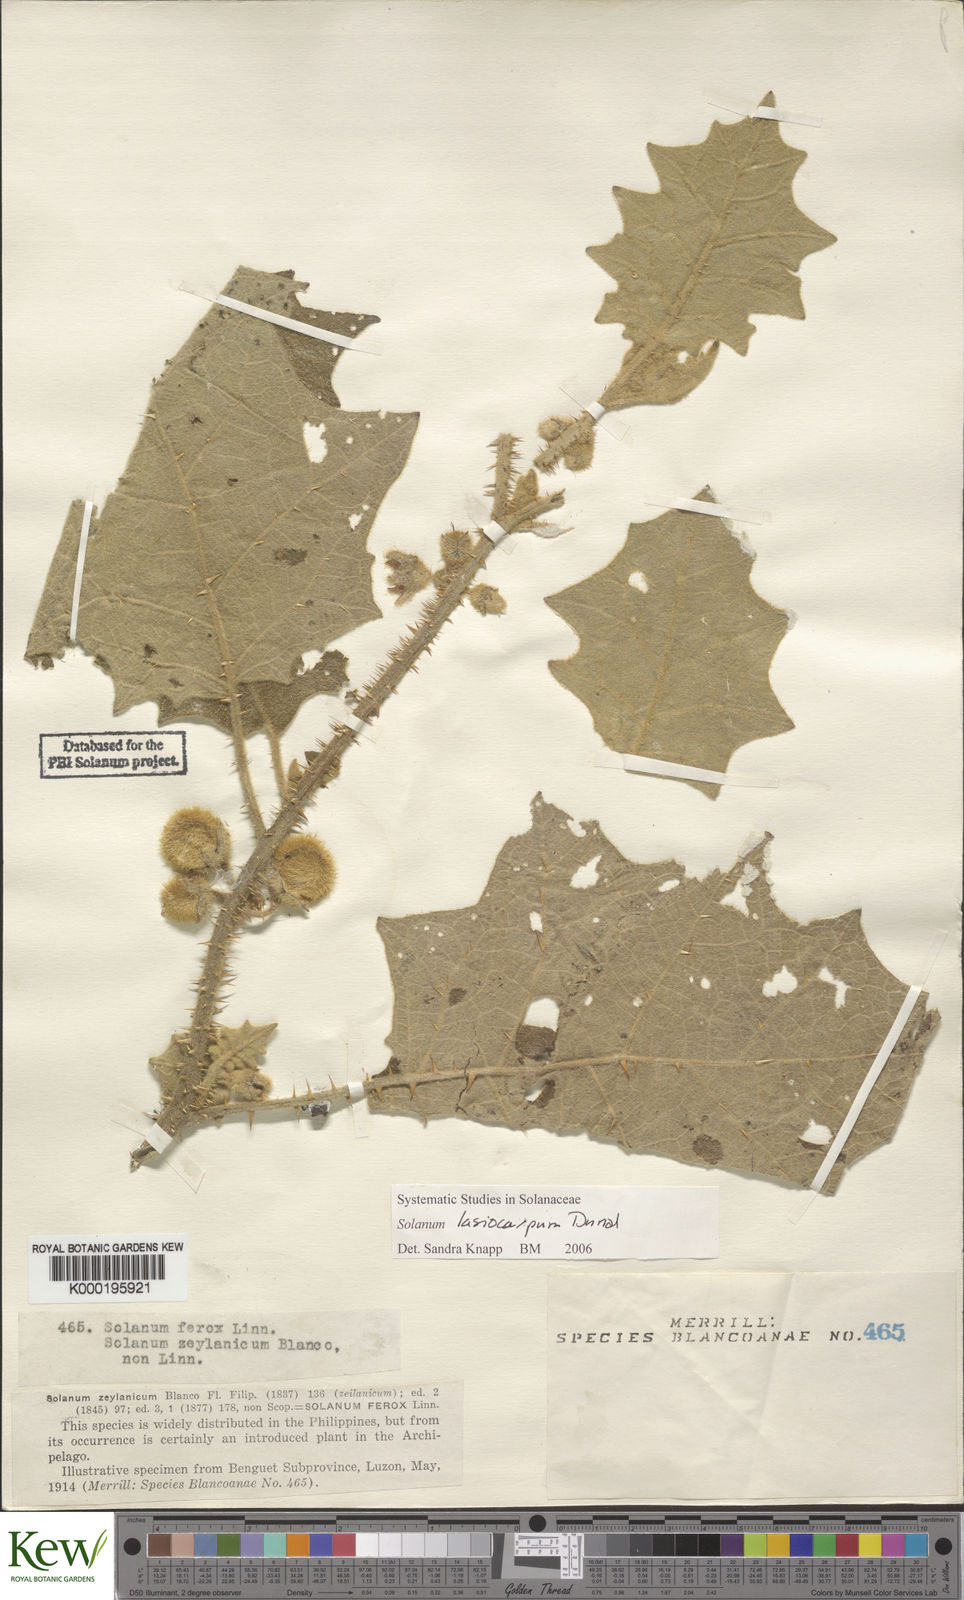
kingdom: Plantae
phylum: Tracheophyta
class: Magnoliopsida
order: Solanales
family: Solanaceae
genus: Solanum
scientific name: Solanum lasiocarpum
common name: Indian nightshade
